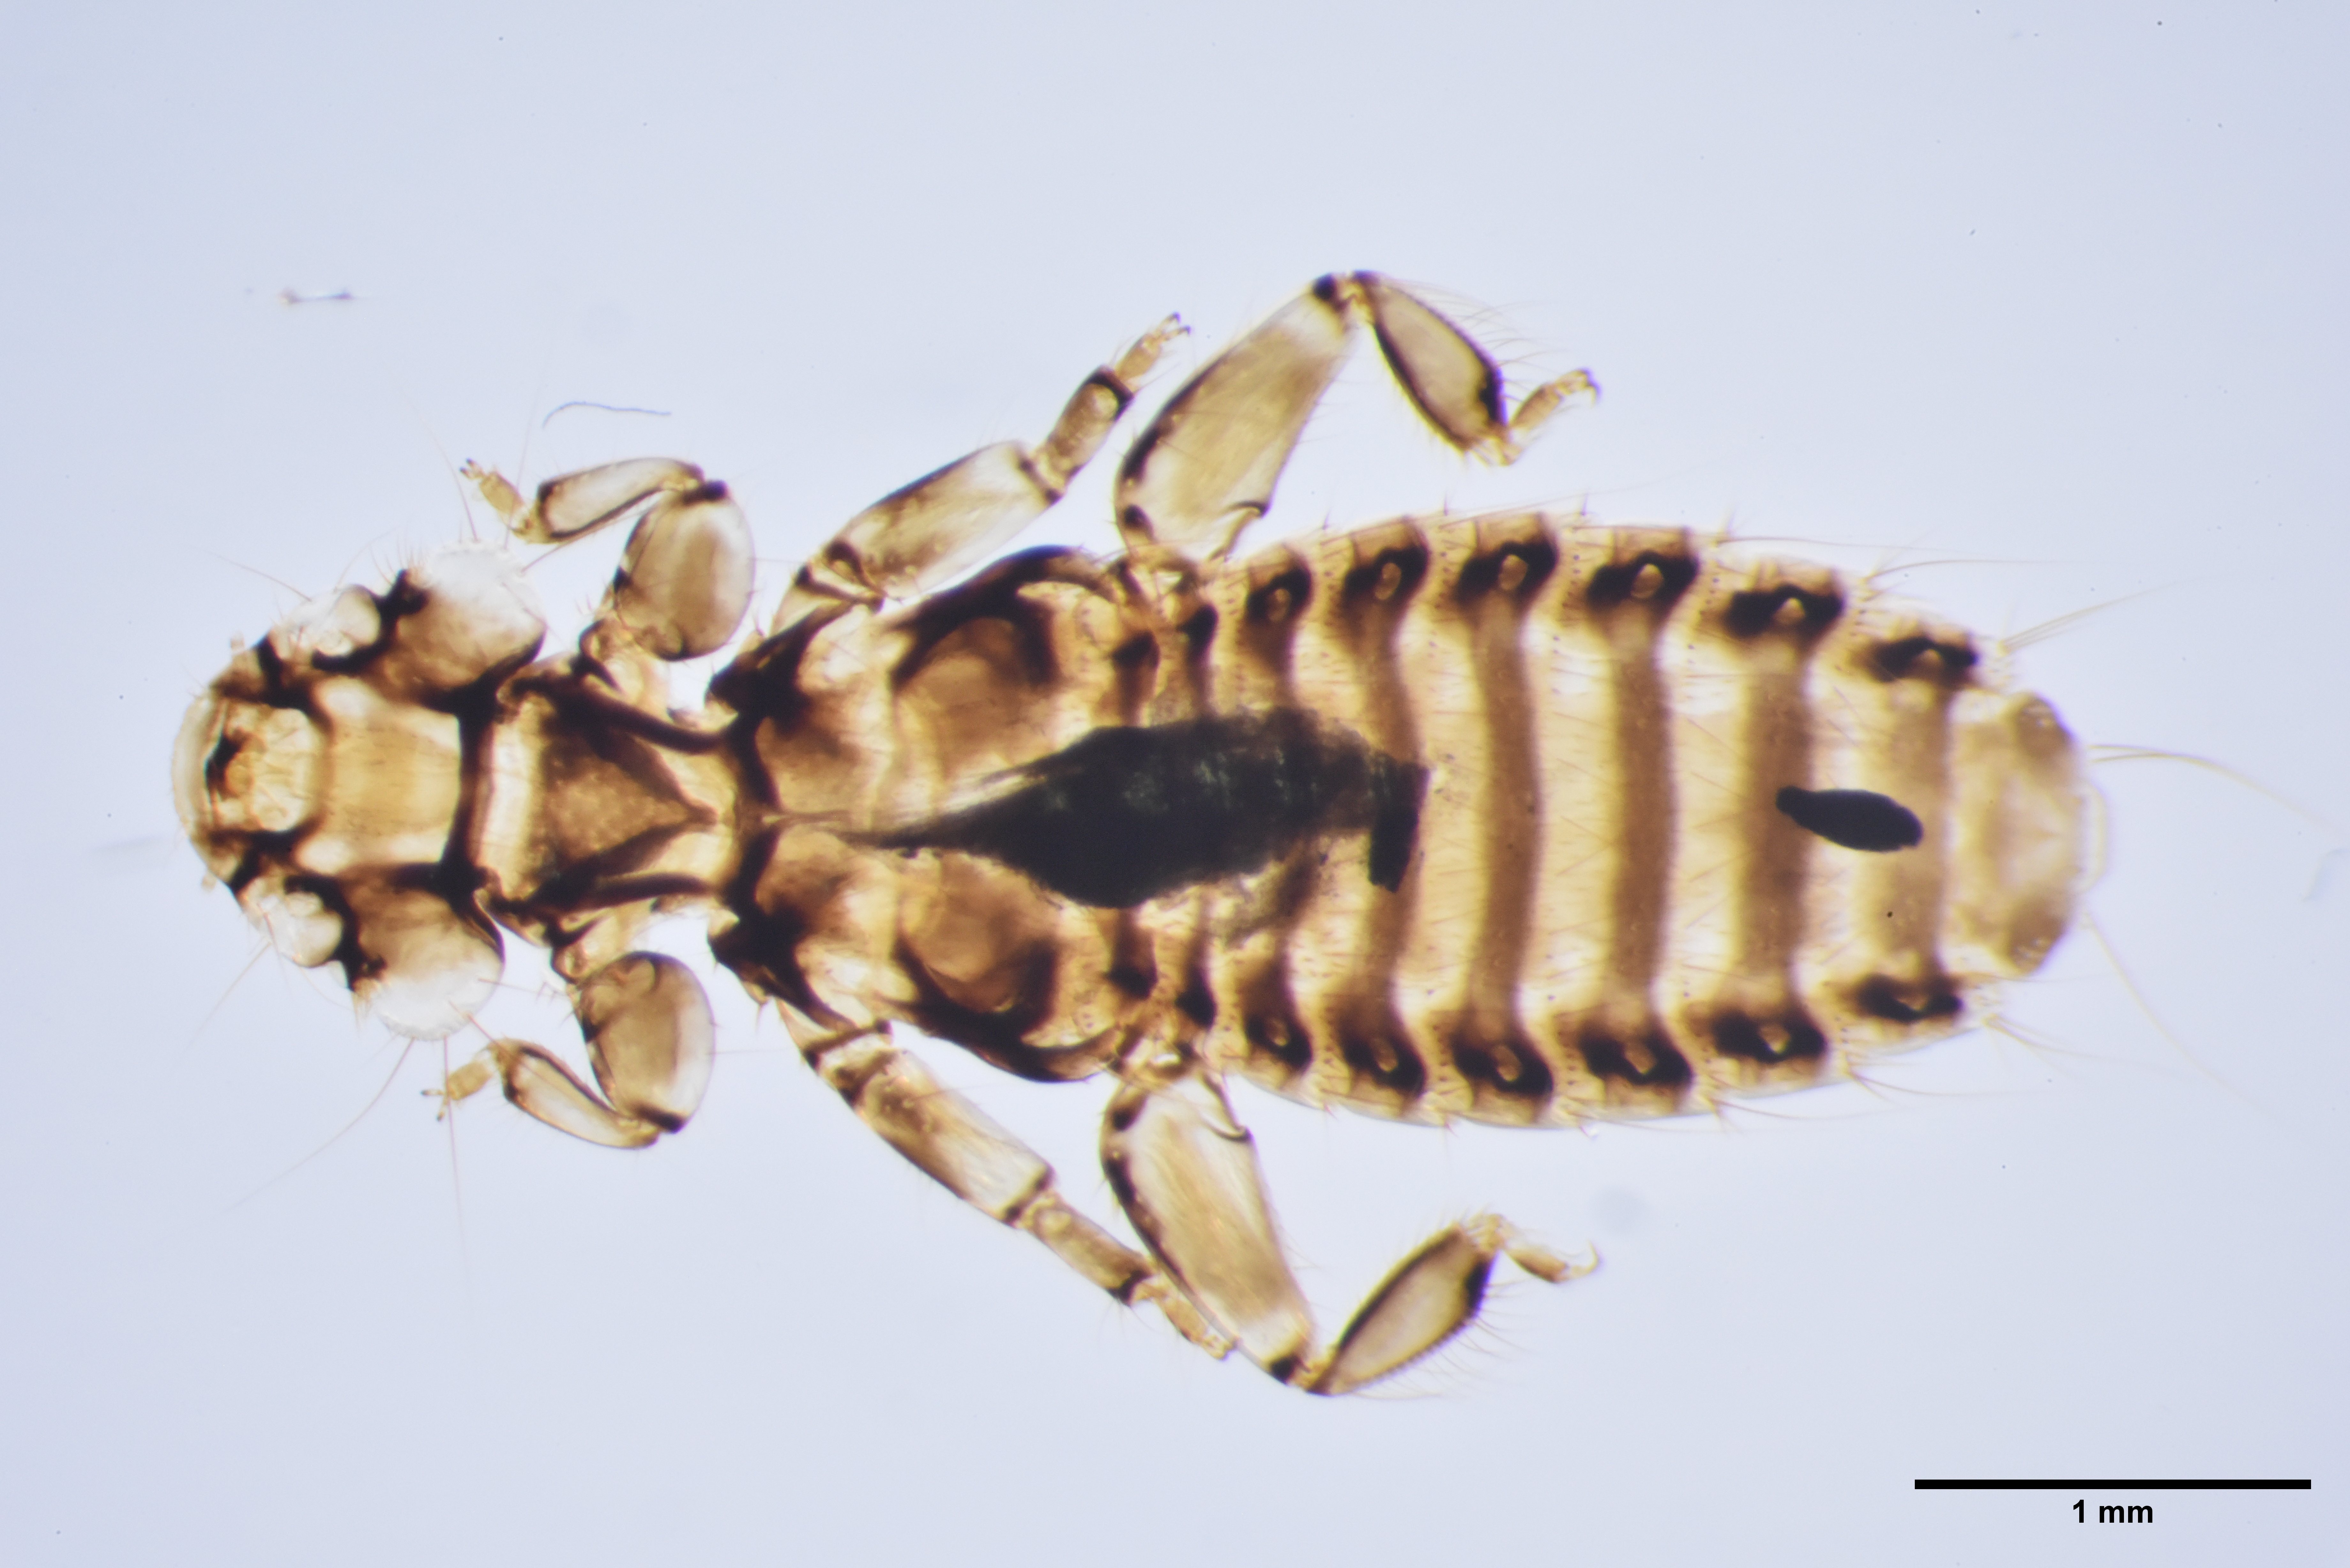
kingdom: Animalia
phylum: Arthropoda
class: Insecta
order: Psocodea
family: Trinotonidae
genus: Trinoton
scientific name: Trinoton querquedulae
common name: Louse
